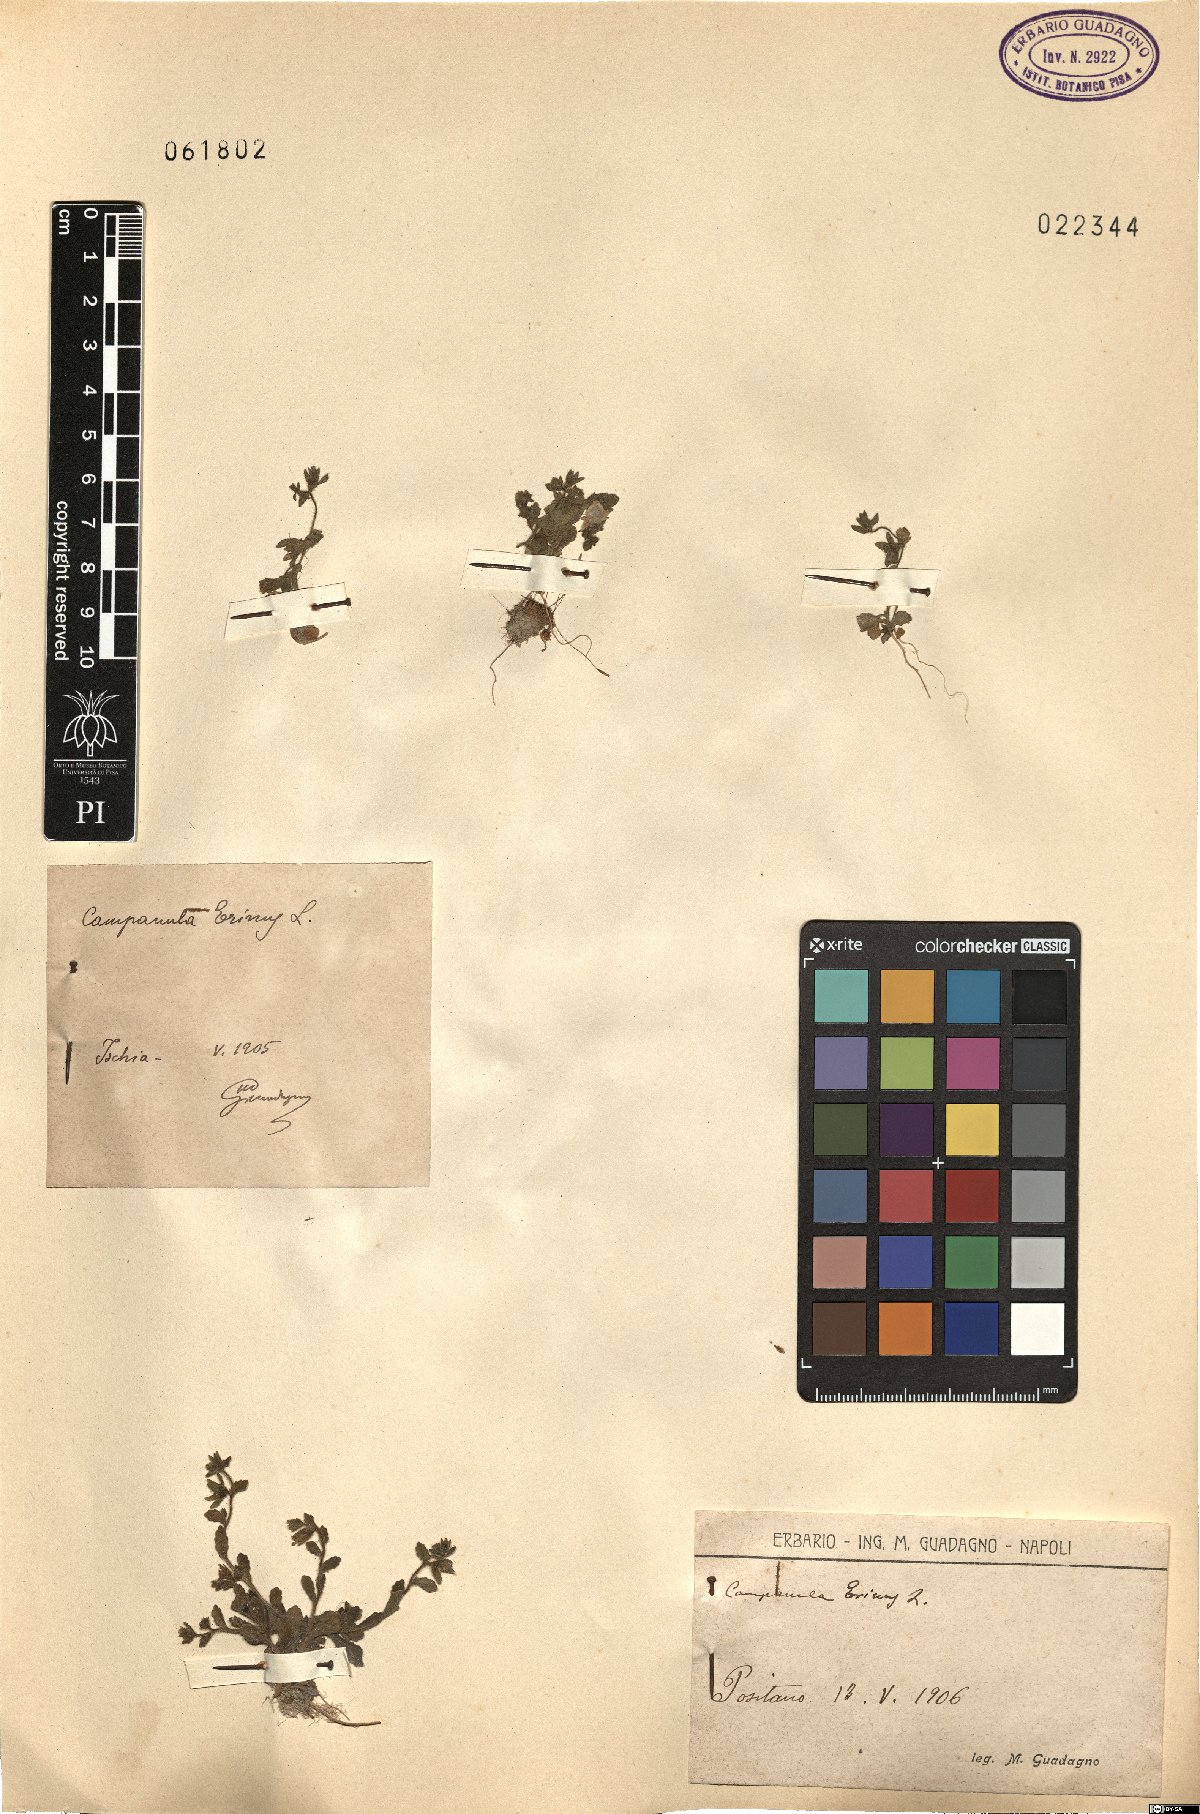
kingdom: Plantae
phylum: Tracheophyta
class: Magnoliopsida
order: Asterales
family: Campanulaceae
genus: Campanula
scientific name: Campanula erinus
